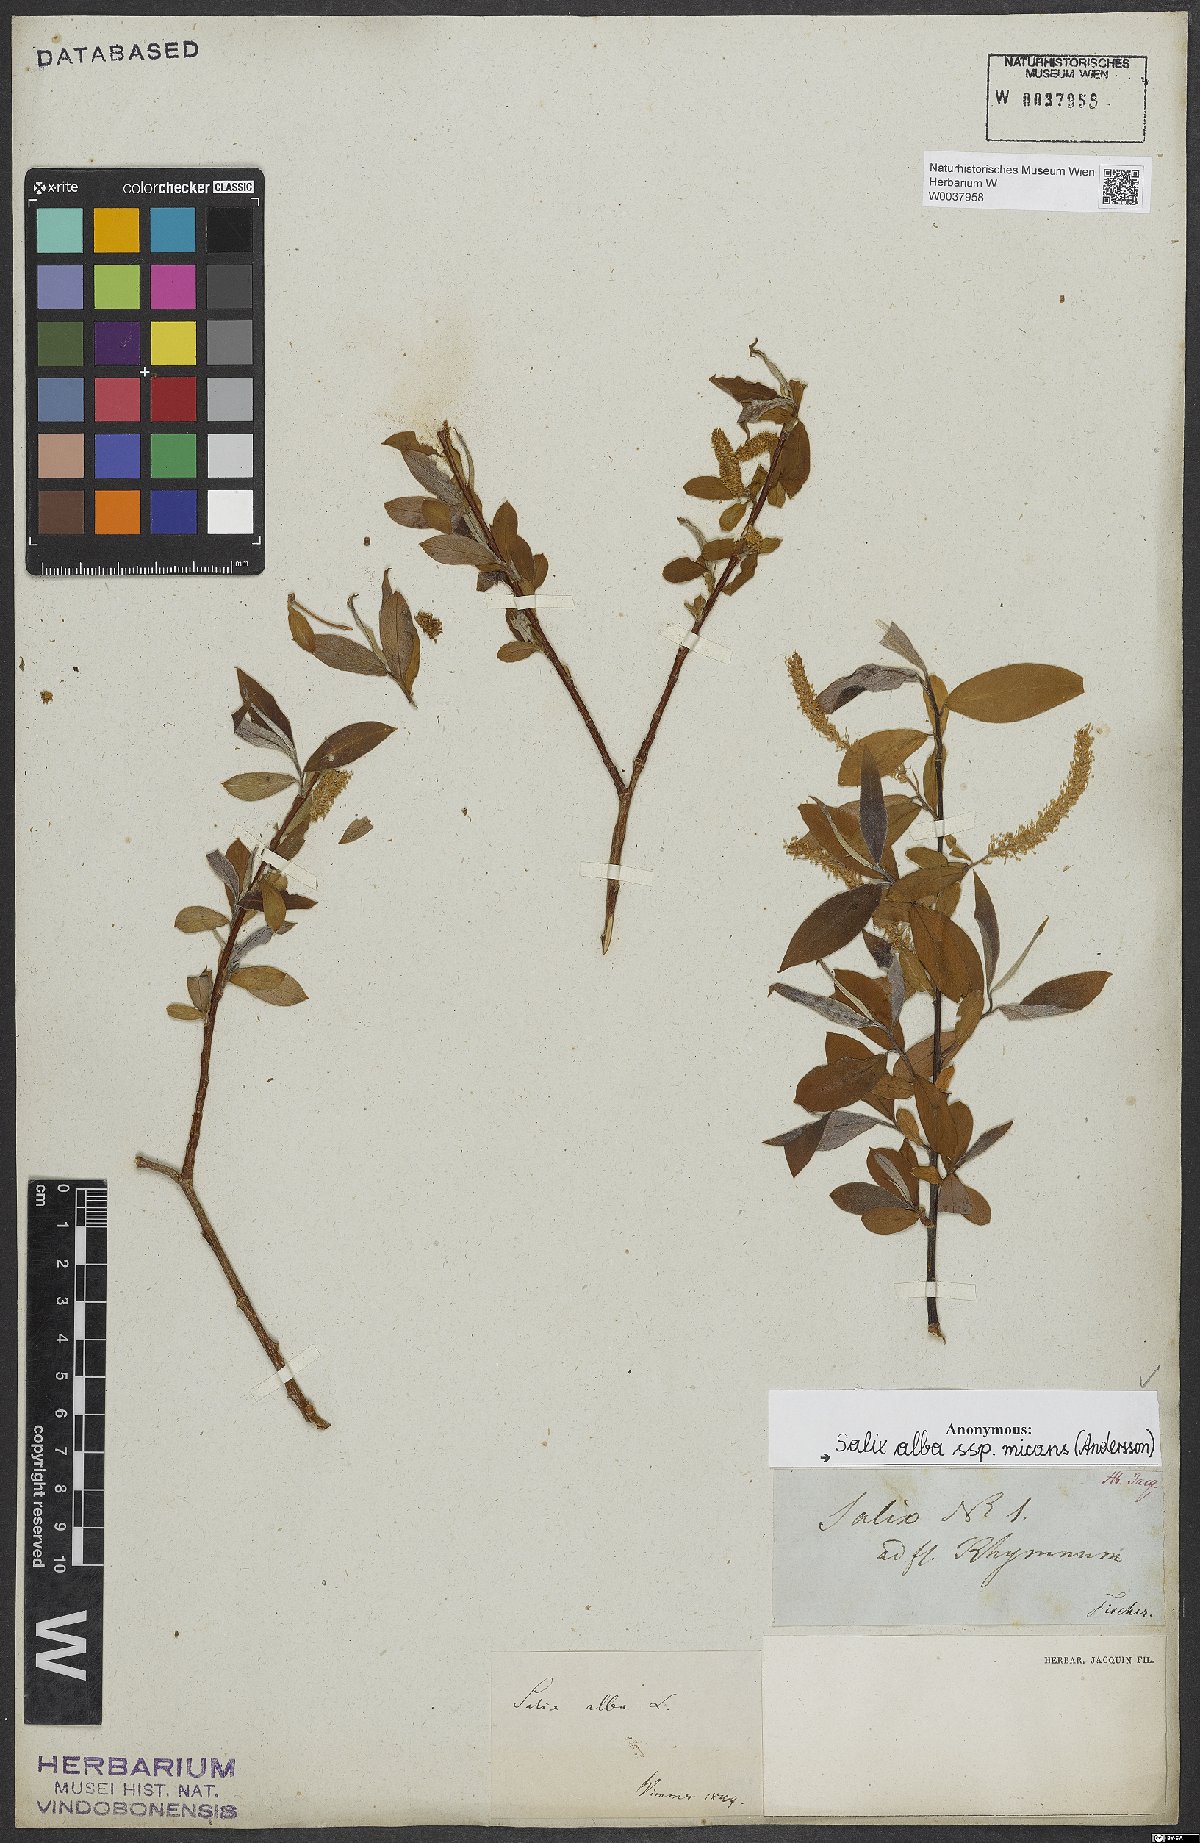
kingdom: Plantae
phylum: Tracheophyta
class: Magnoliopsida
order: Malpighiales
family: Salicaceae
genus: Salix
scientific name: Salix alba
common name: White willow
